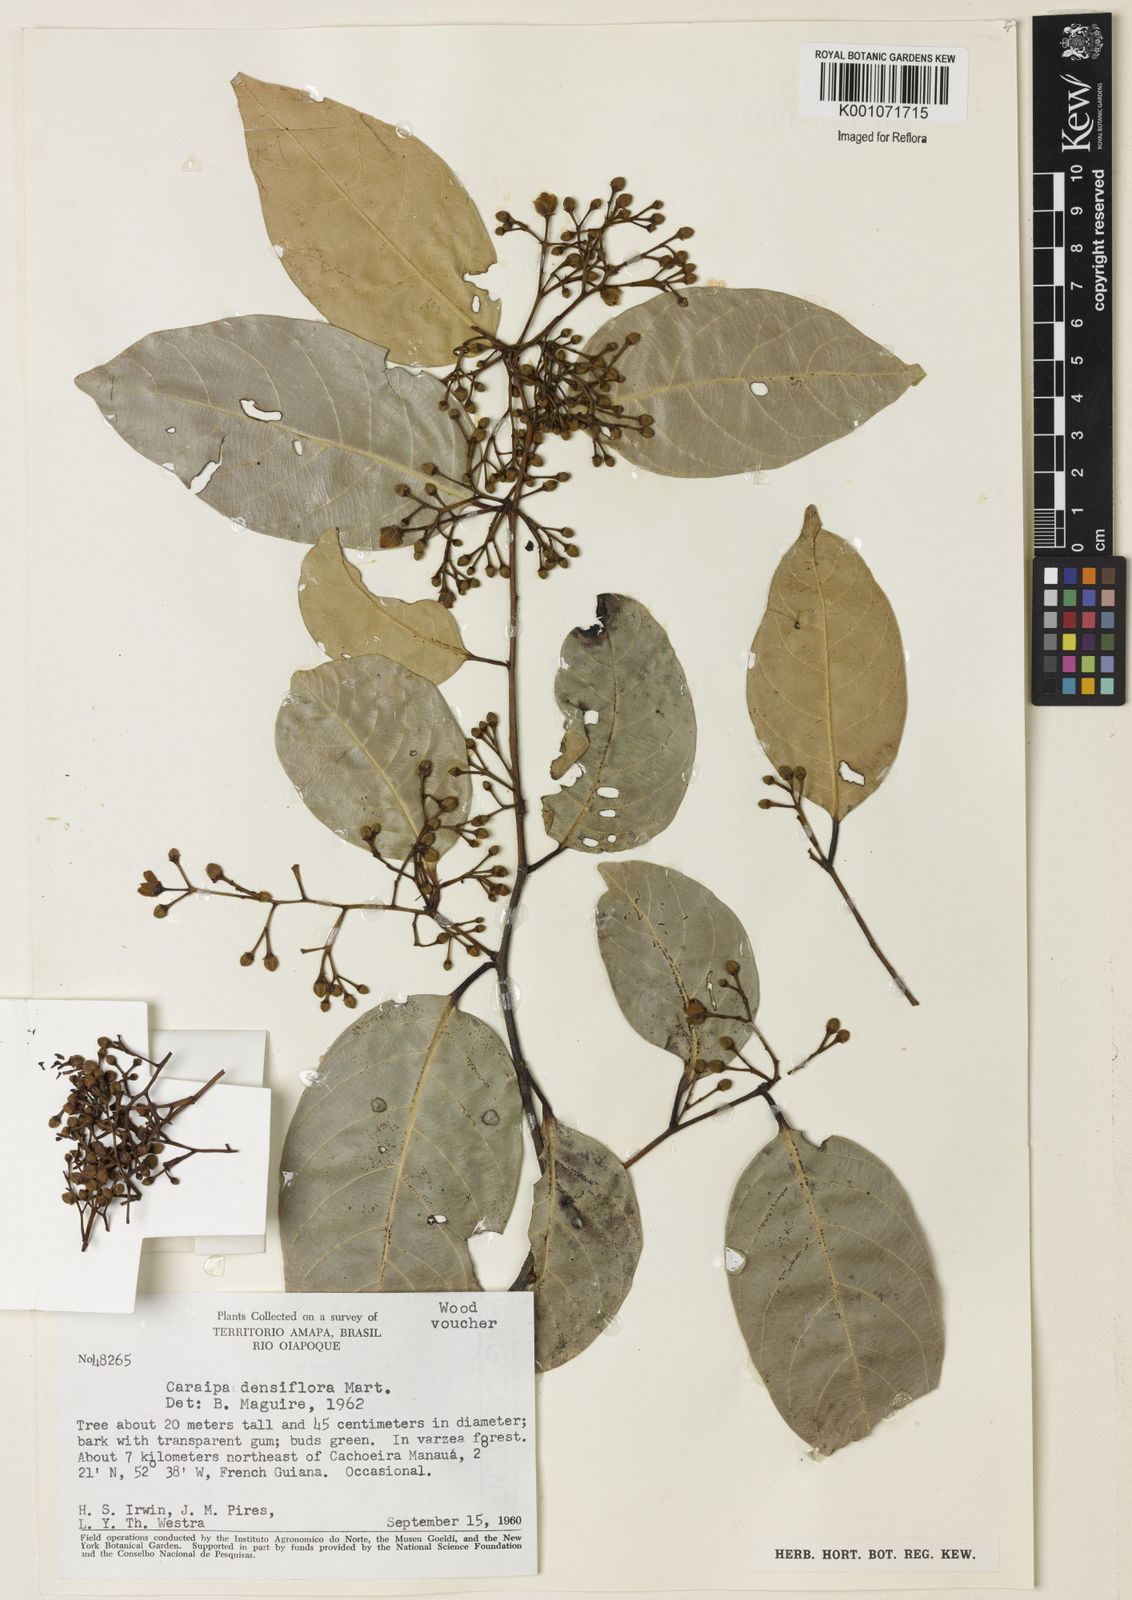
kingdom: Plantae
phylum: Tracheophyta
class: Magnoliopsida
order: Malpighiales
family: Calophyllaceae
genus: Caraipa
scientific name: Caraipa densifolia
